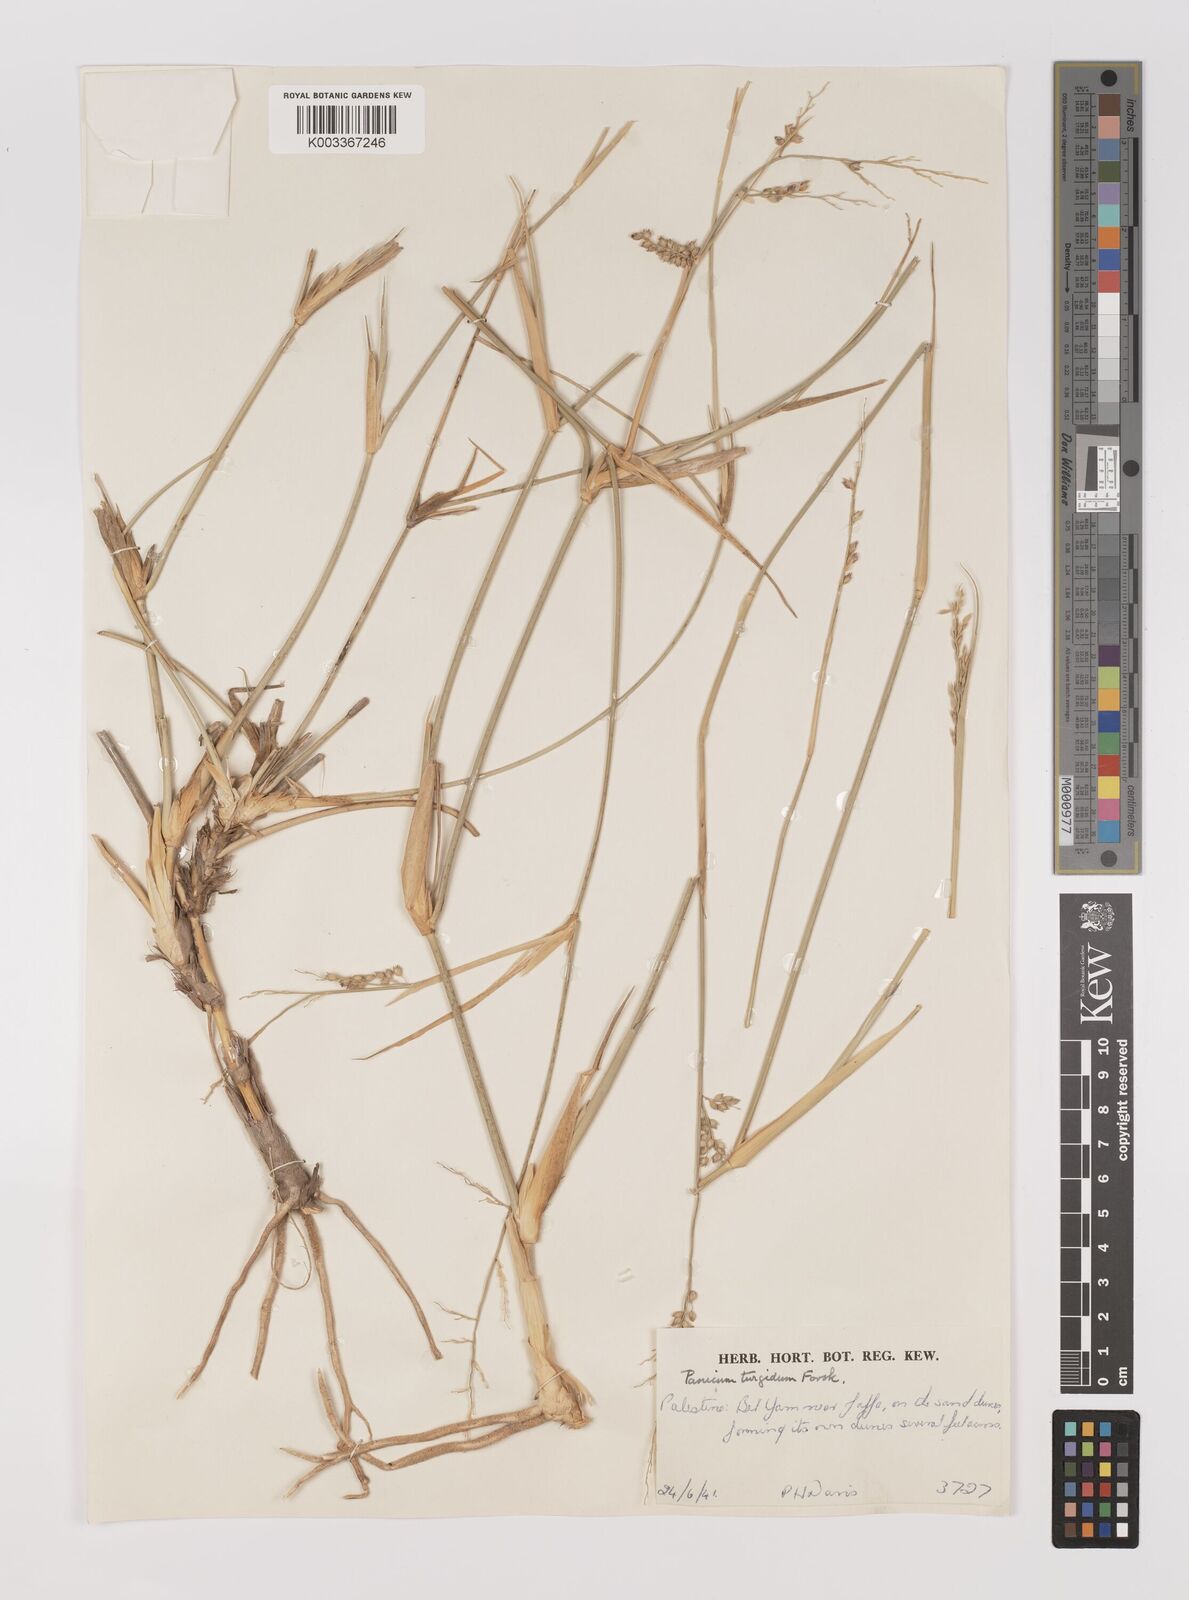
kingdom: Plantae
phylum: Tracheophyta
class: Liliopsida
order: Poales
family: Poaceae
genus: Panicum
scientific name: Panicum turgidum
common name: Desert grass
